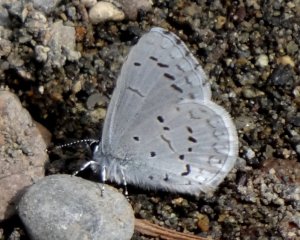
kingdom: Animalia
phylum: Arthropoda
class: Insecta
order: Lepidoptera
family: Lycaenidae
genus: Celastrina
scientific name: Celastrina ladon
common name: Echo Azure
